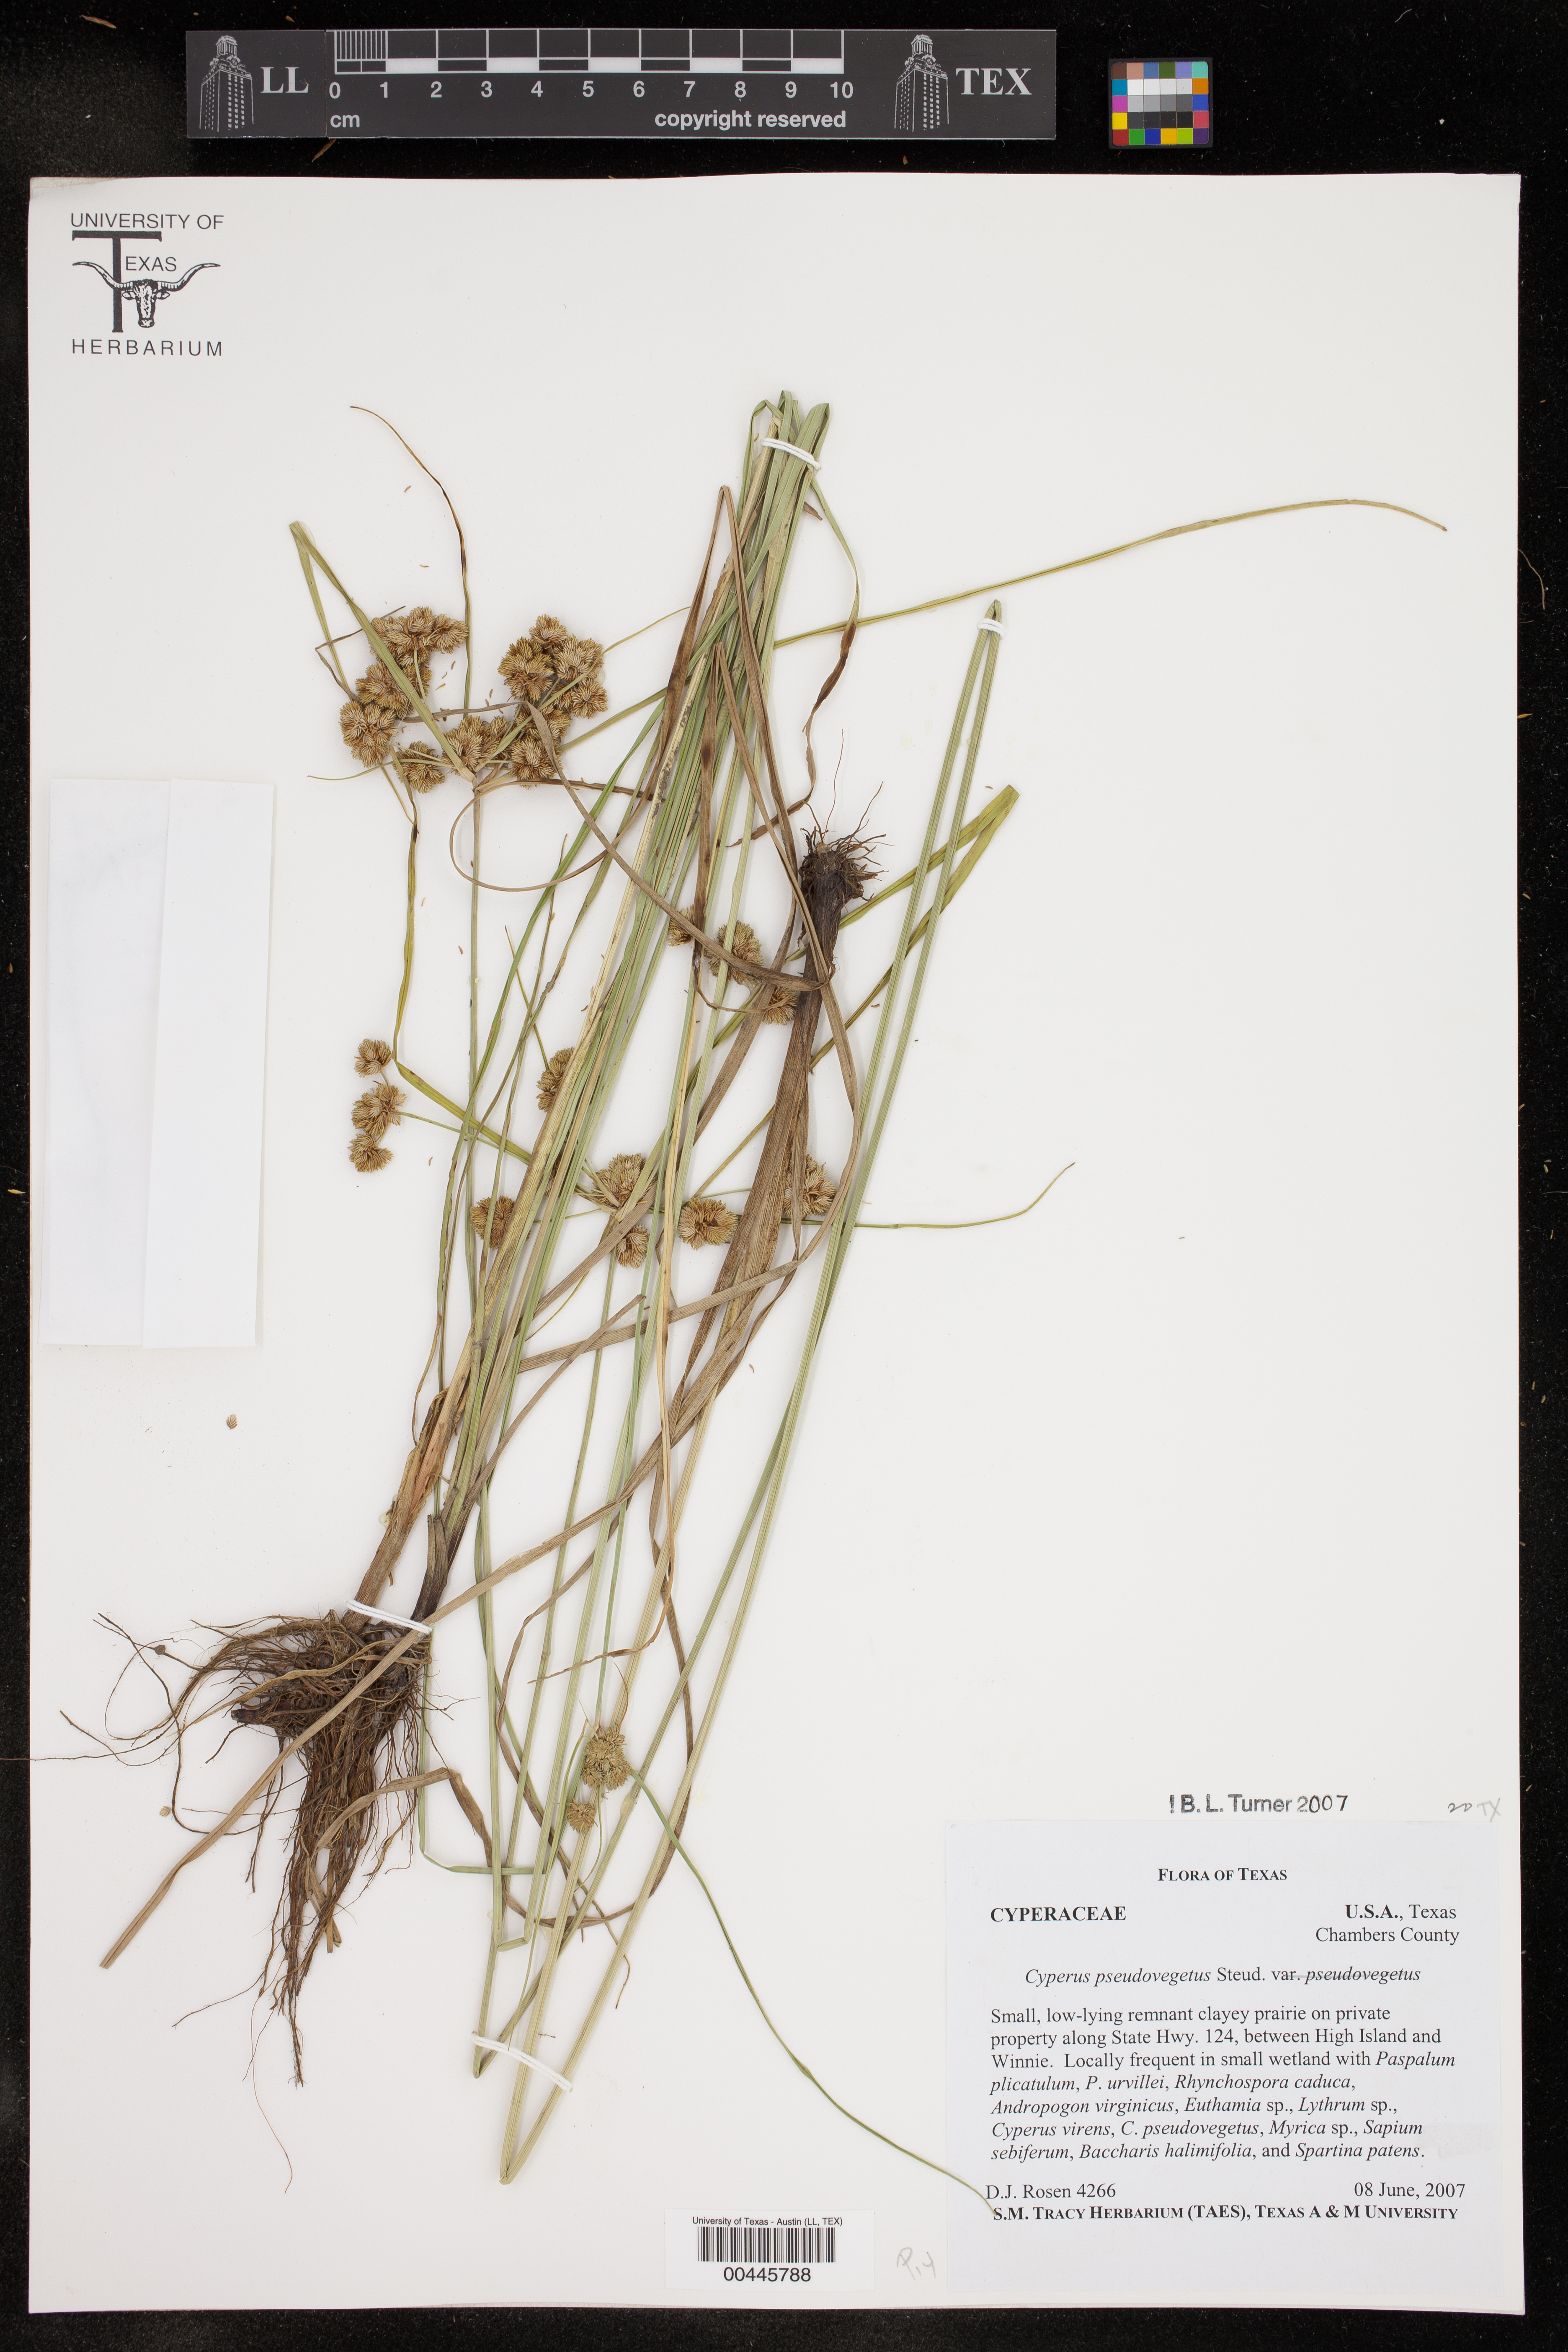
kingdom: Plantae
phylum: Tracheophyta
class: Liliopsida
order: Poales
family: Cyperaceae
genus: Cyperus
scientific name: Cyperus pseudovegetus
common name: Marsh flat sedge
